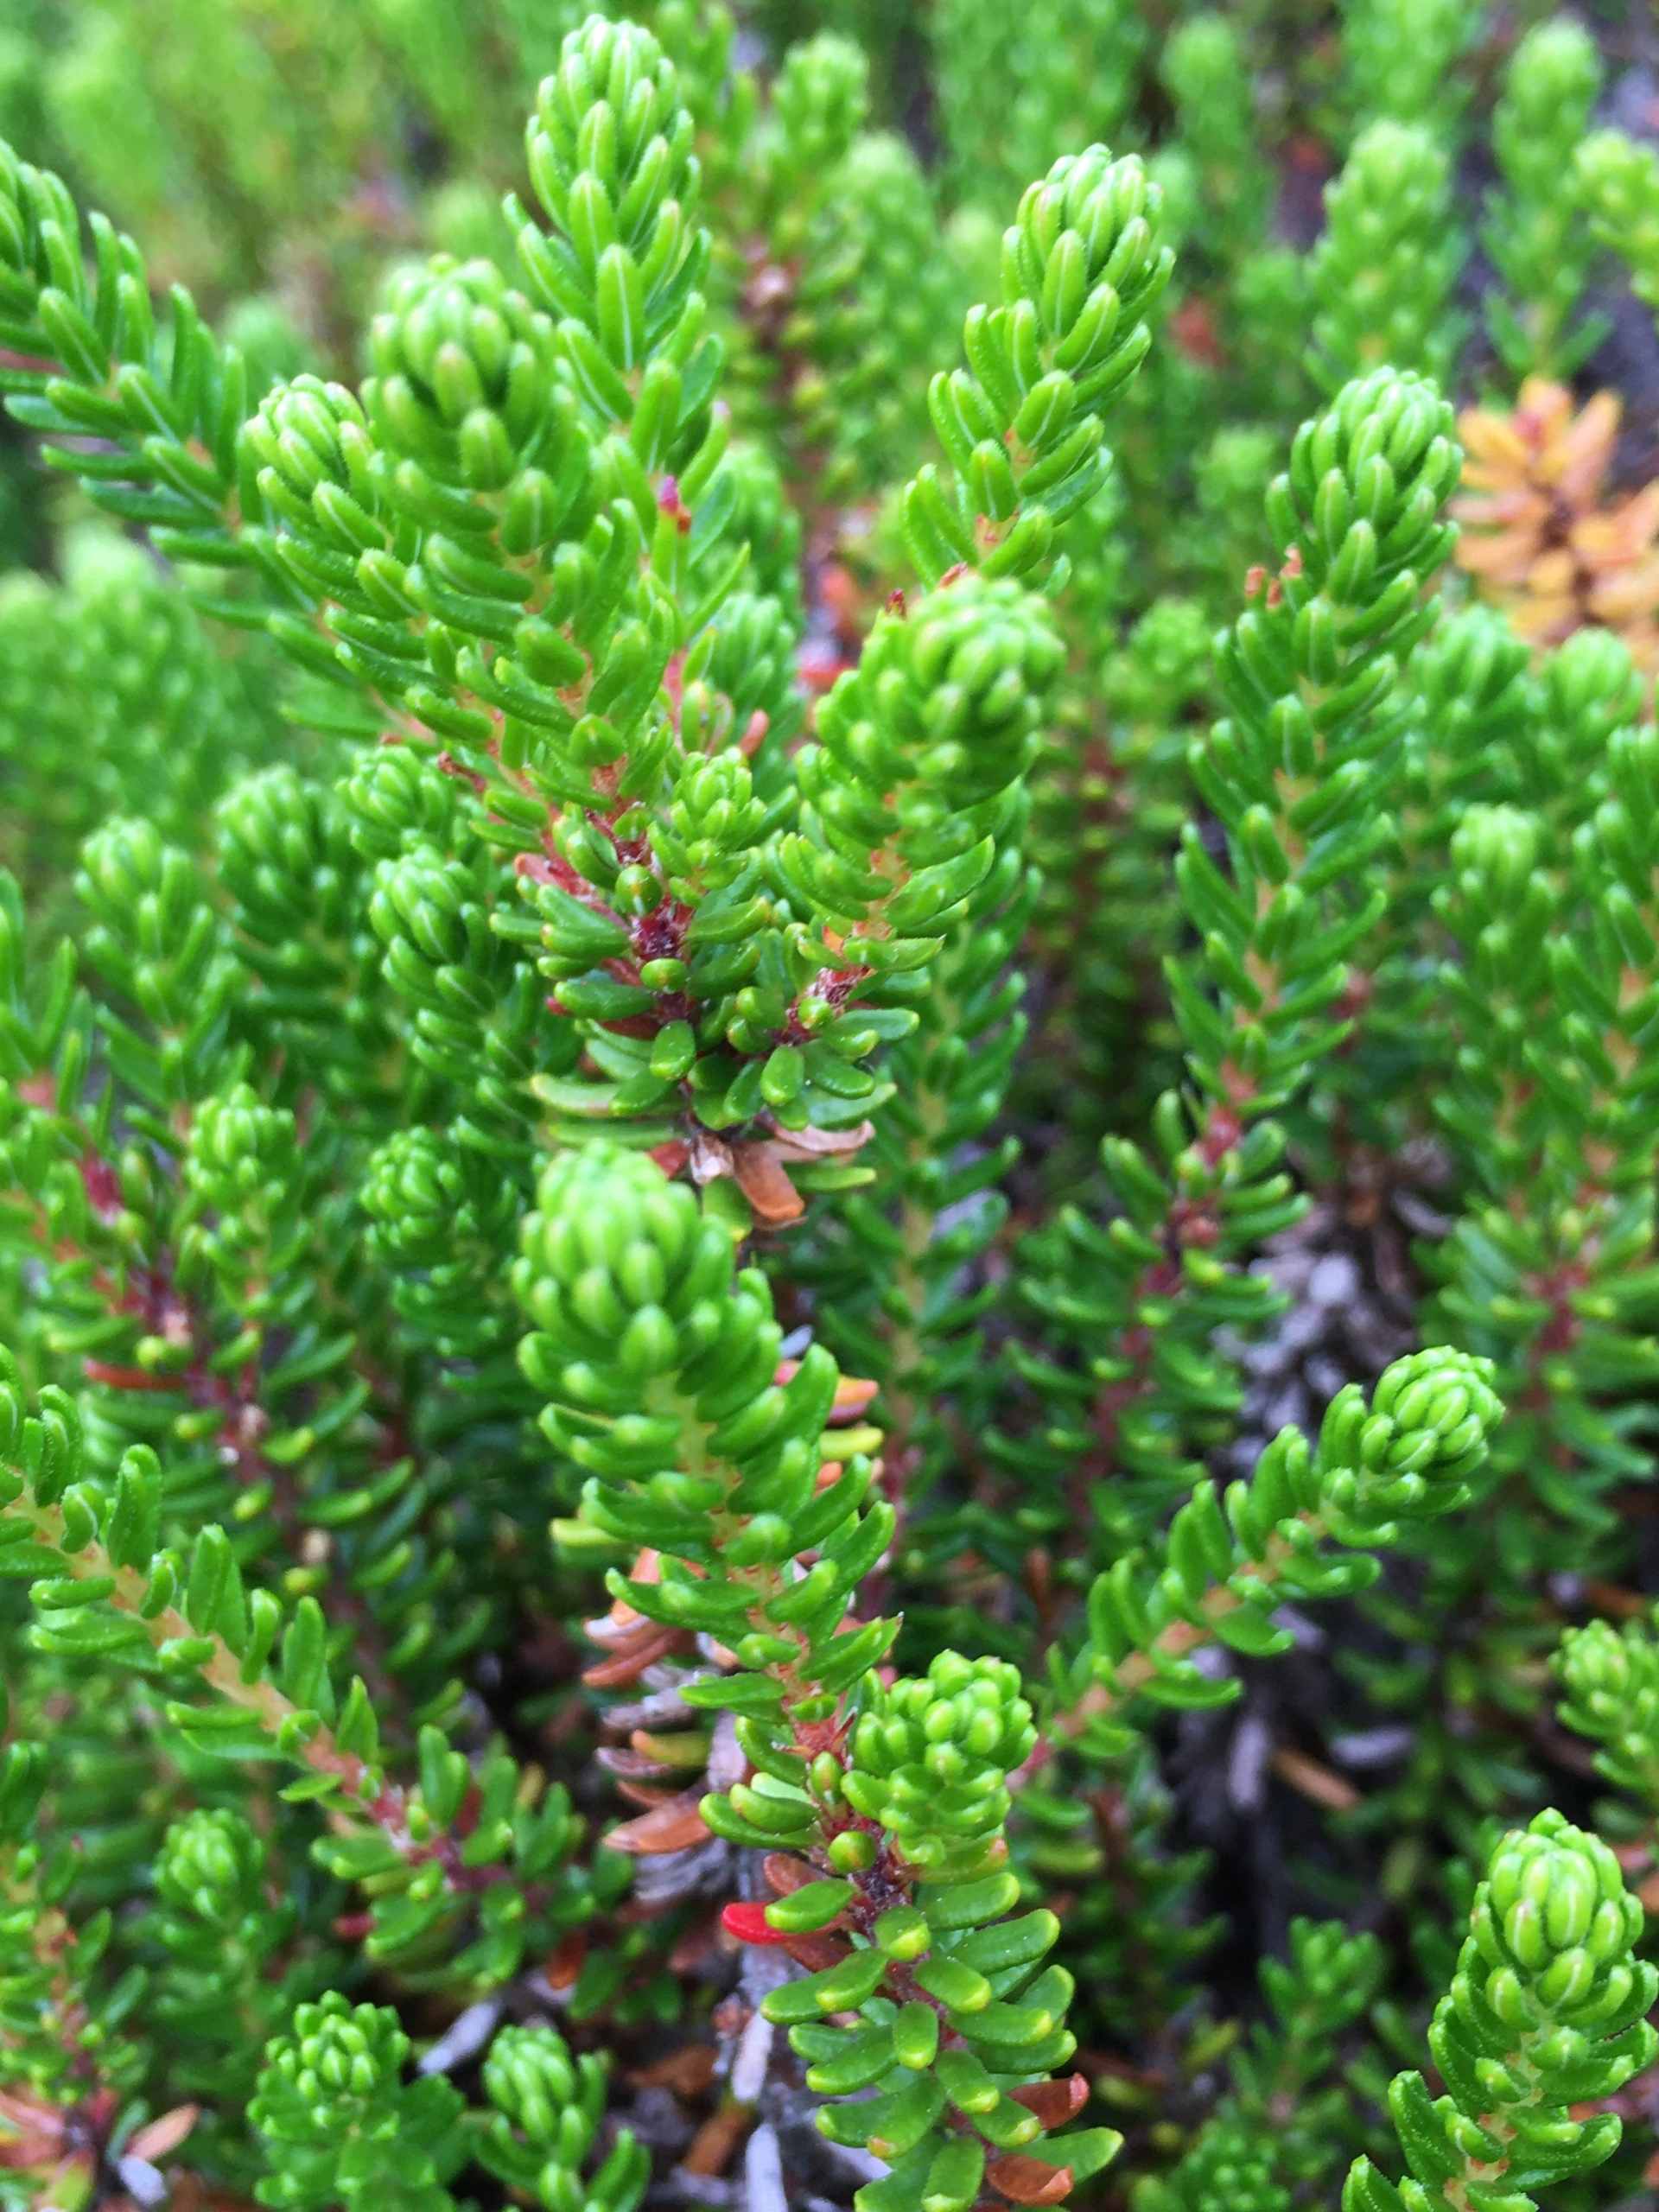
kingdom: Plantae
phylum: Tracheophyta
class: Magnoliopsida
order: Ericales
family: Ericaceae
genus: Empetrum
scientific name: Empetrum nigrum
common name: Revling
